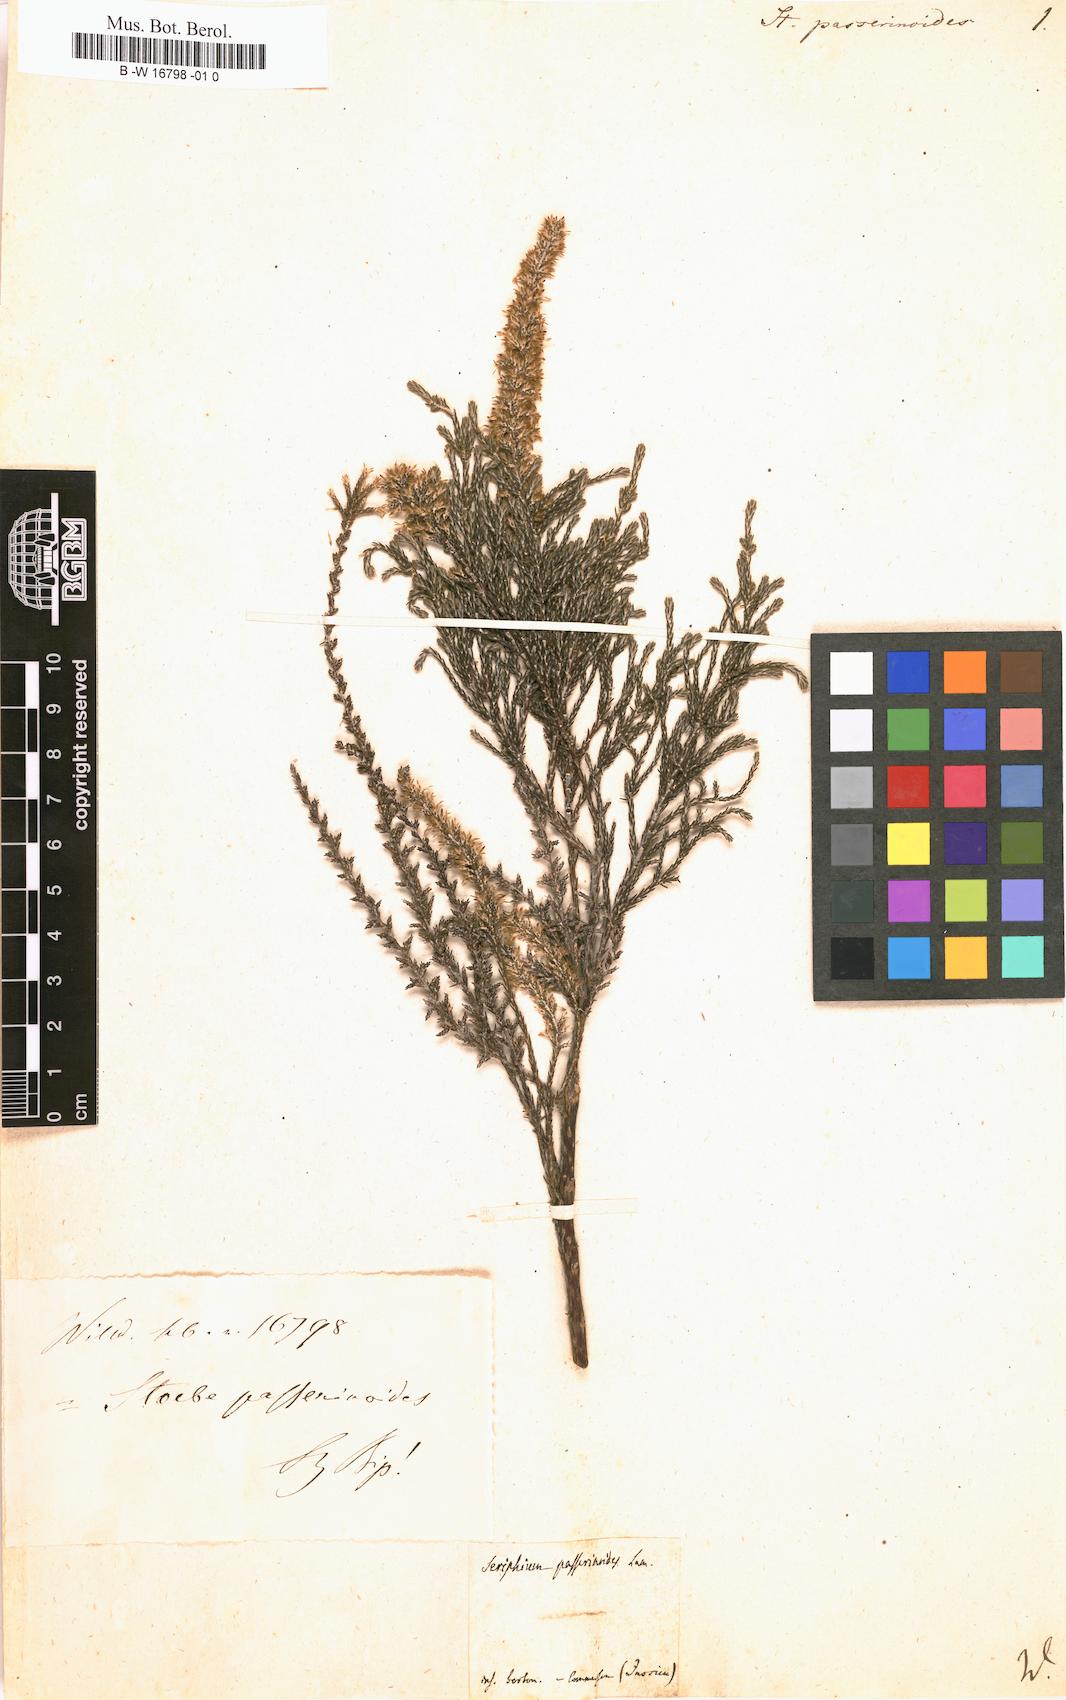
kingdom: Plantae
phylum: Tracheophyta
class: Magnoliopsida
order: Asterales
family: Asteraceae
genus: Seriphium
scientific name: Seriphium passerinoides
